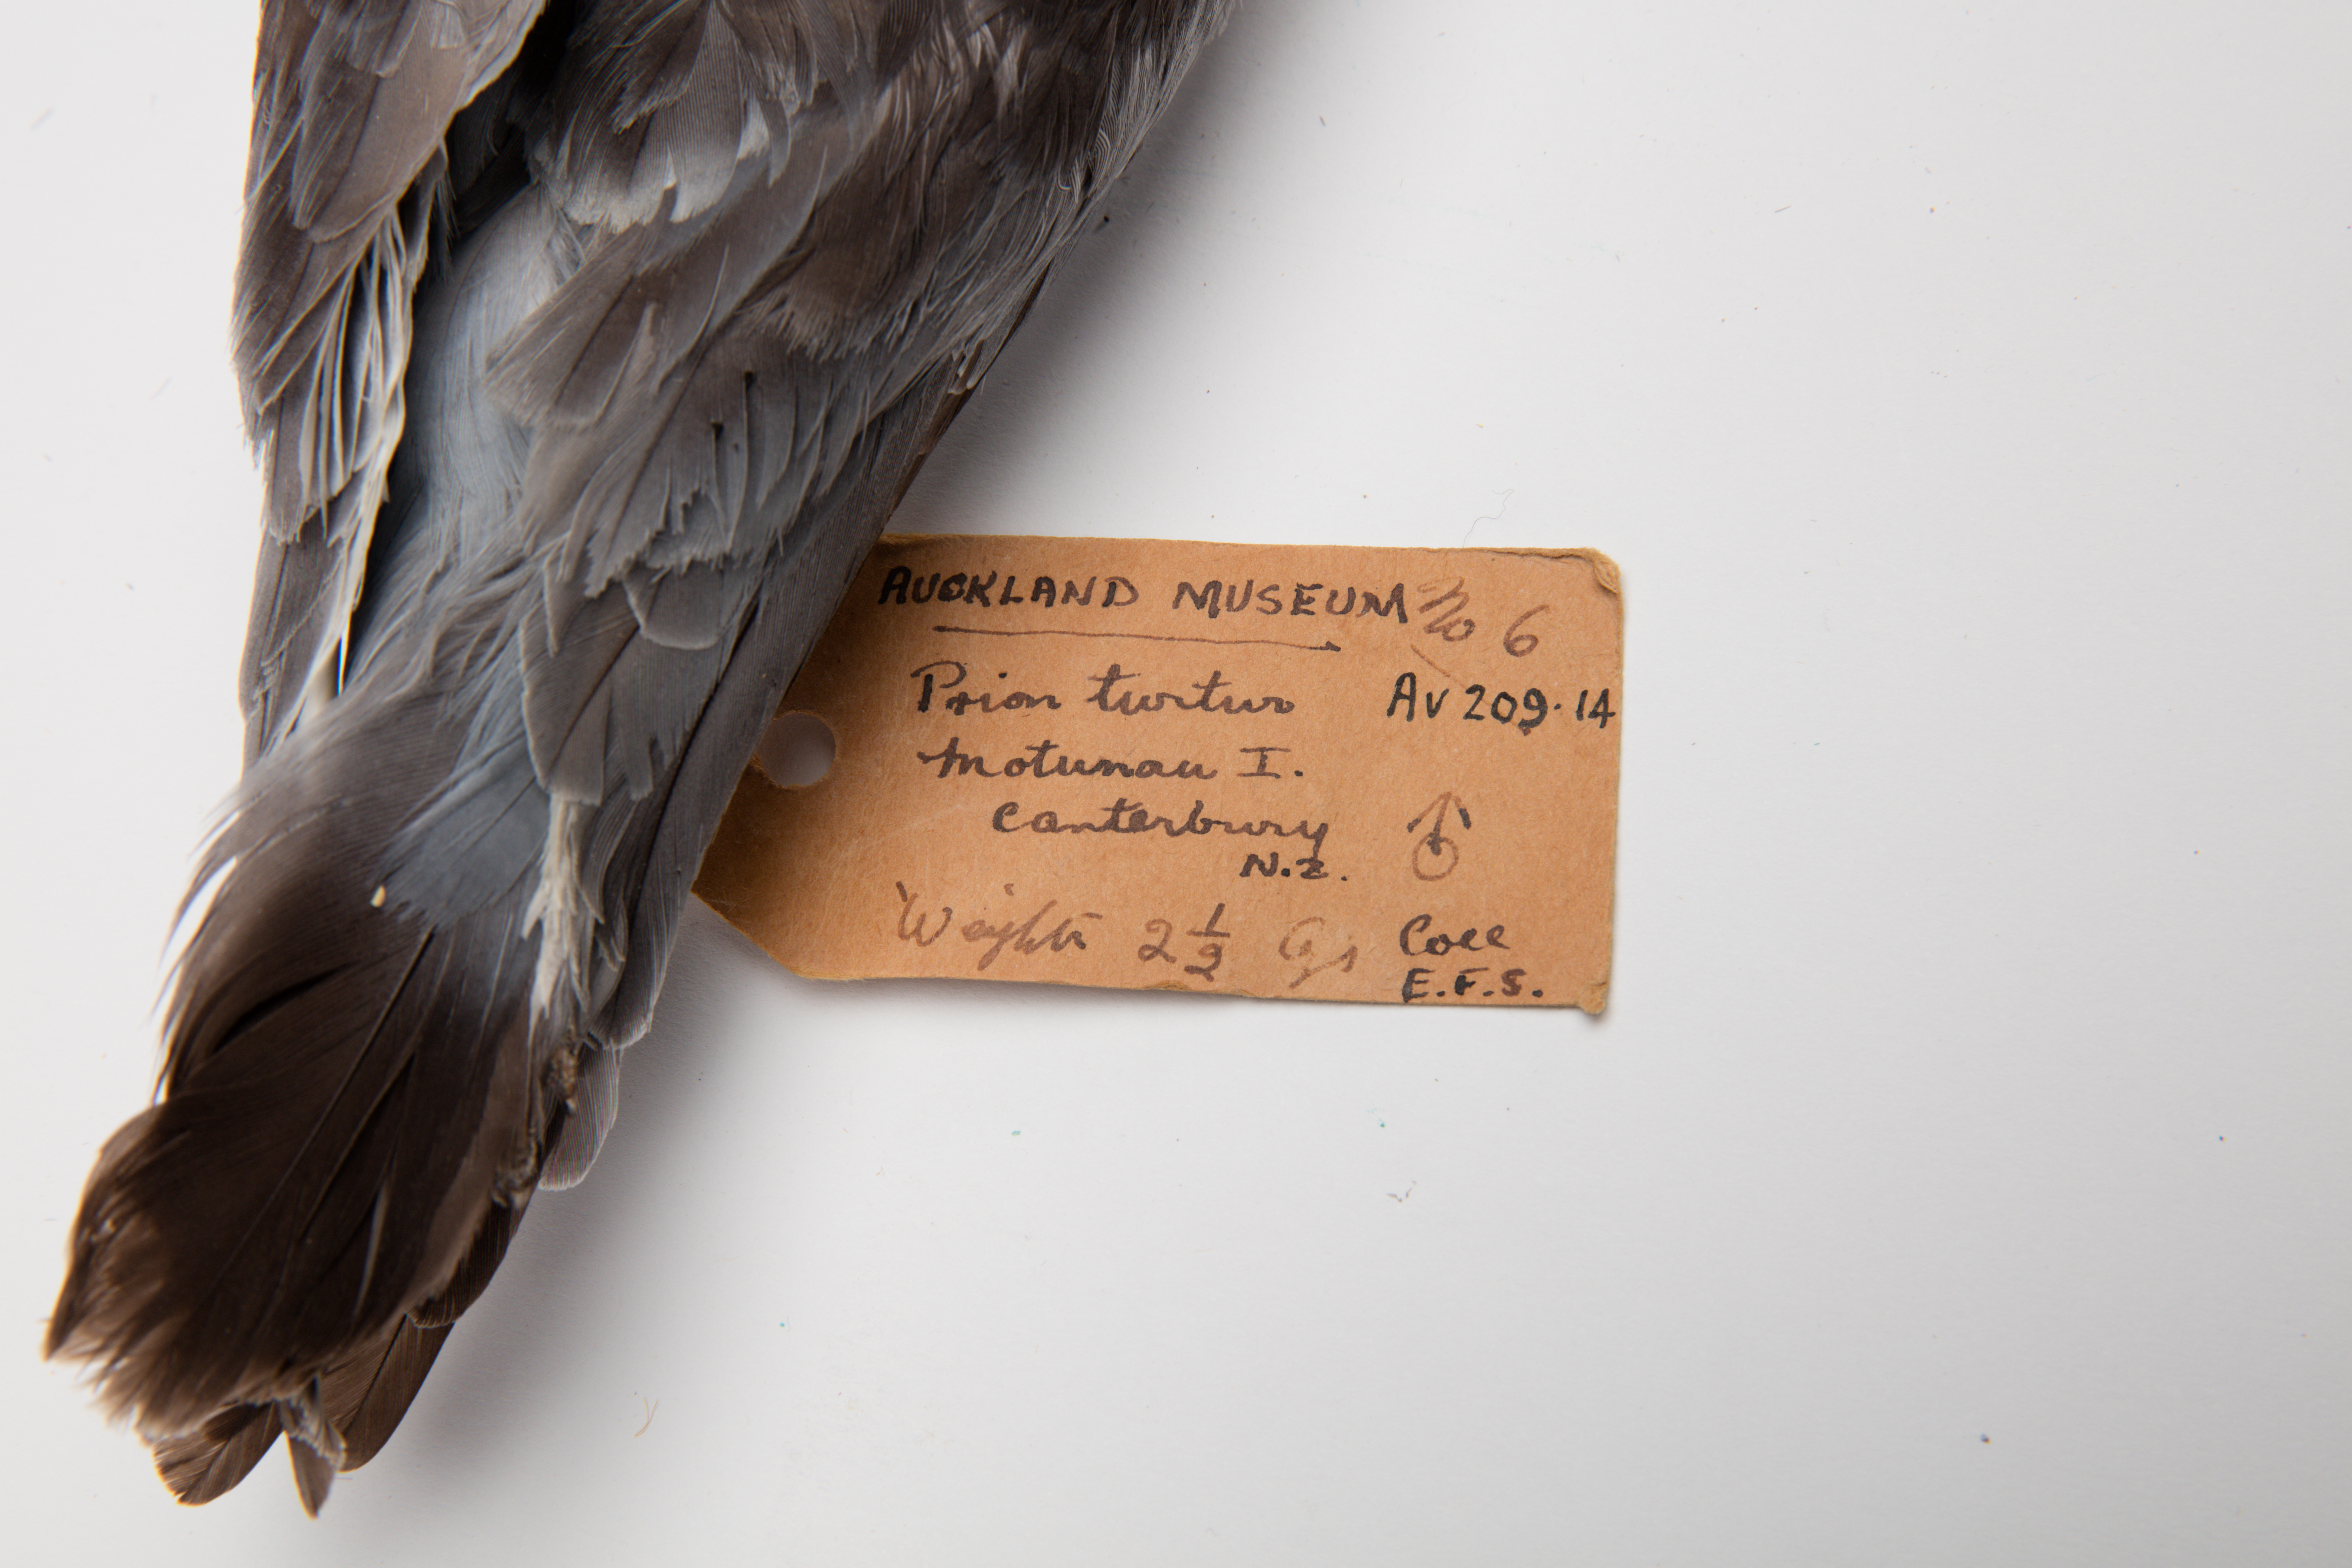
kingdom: Animalia
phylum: Chordata
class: Aves
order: Procellariiformes
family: Procellariidae
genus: Pachyptila
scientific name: Pachyptila turtur
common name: Fairy prion
